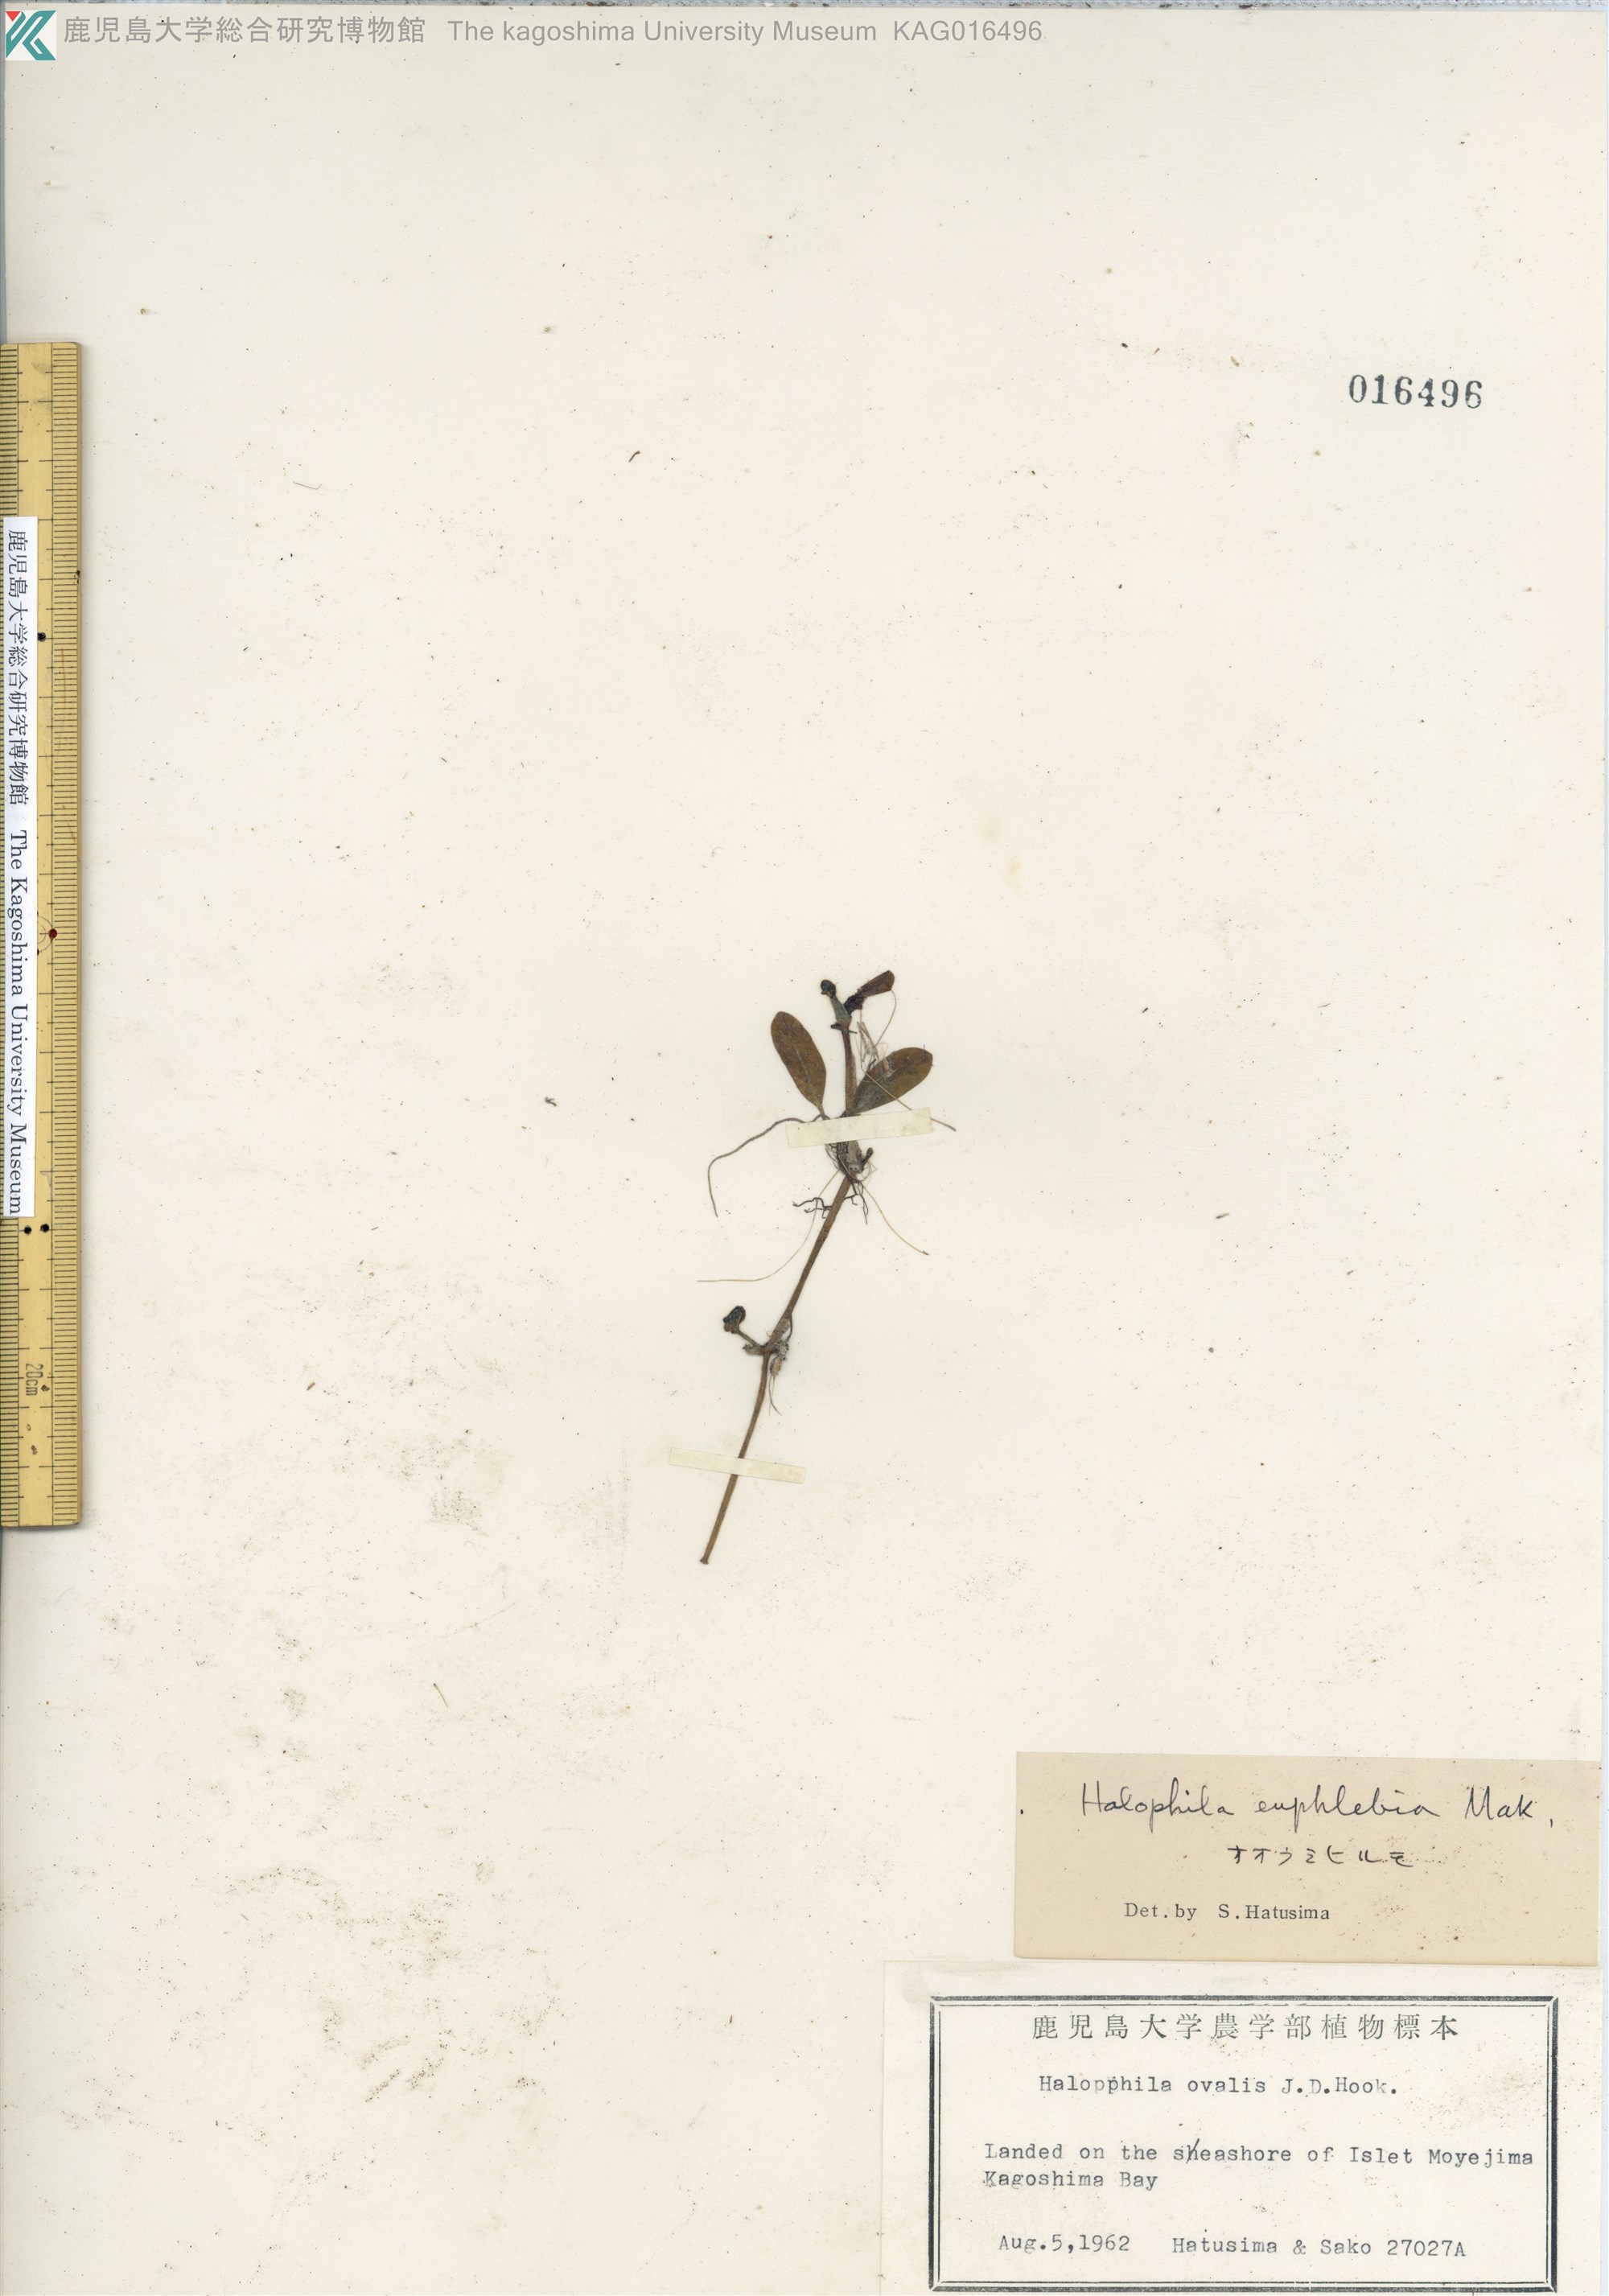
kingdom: Plantae
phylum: Tracheophyta
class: Liliopsida
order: Alismatales
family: Hydrocharitaceae
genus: Halophila
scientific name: Halophila major
